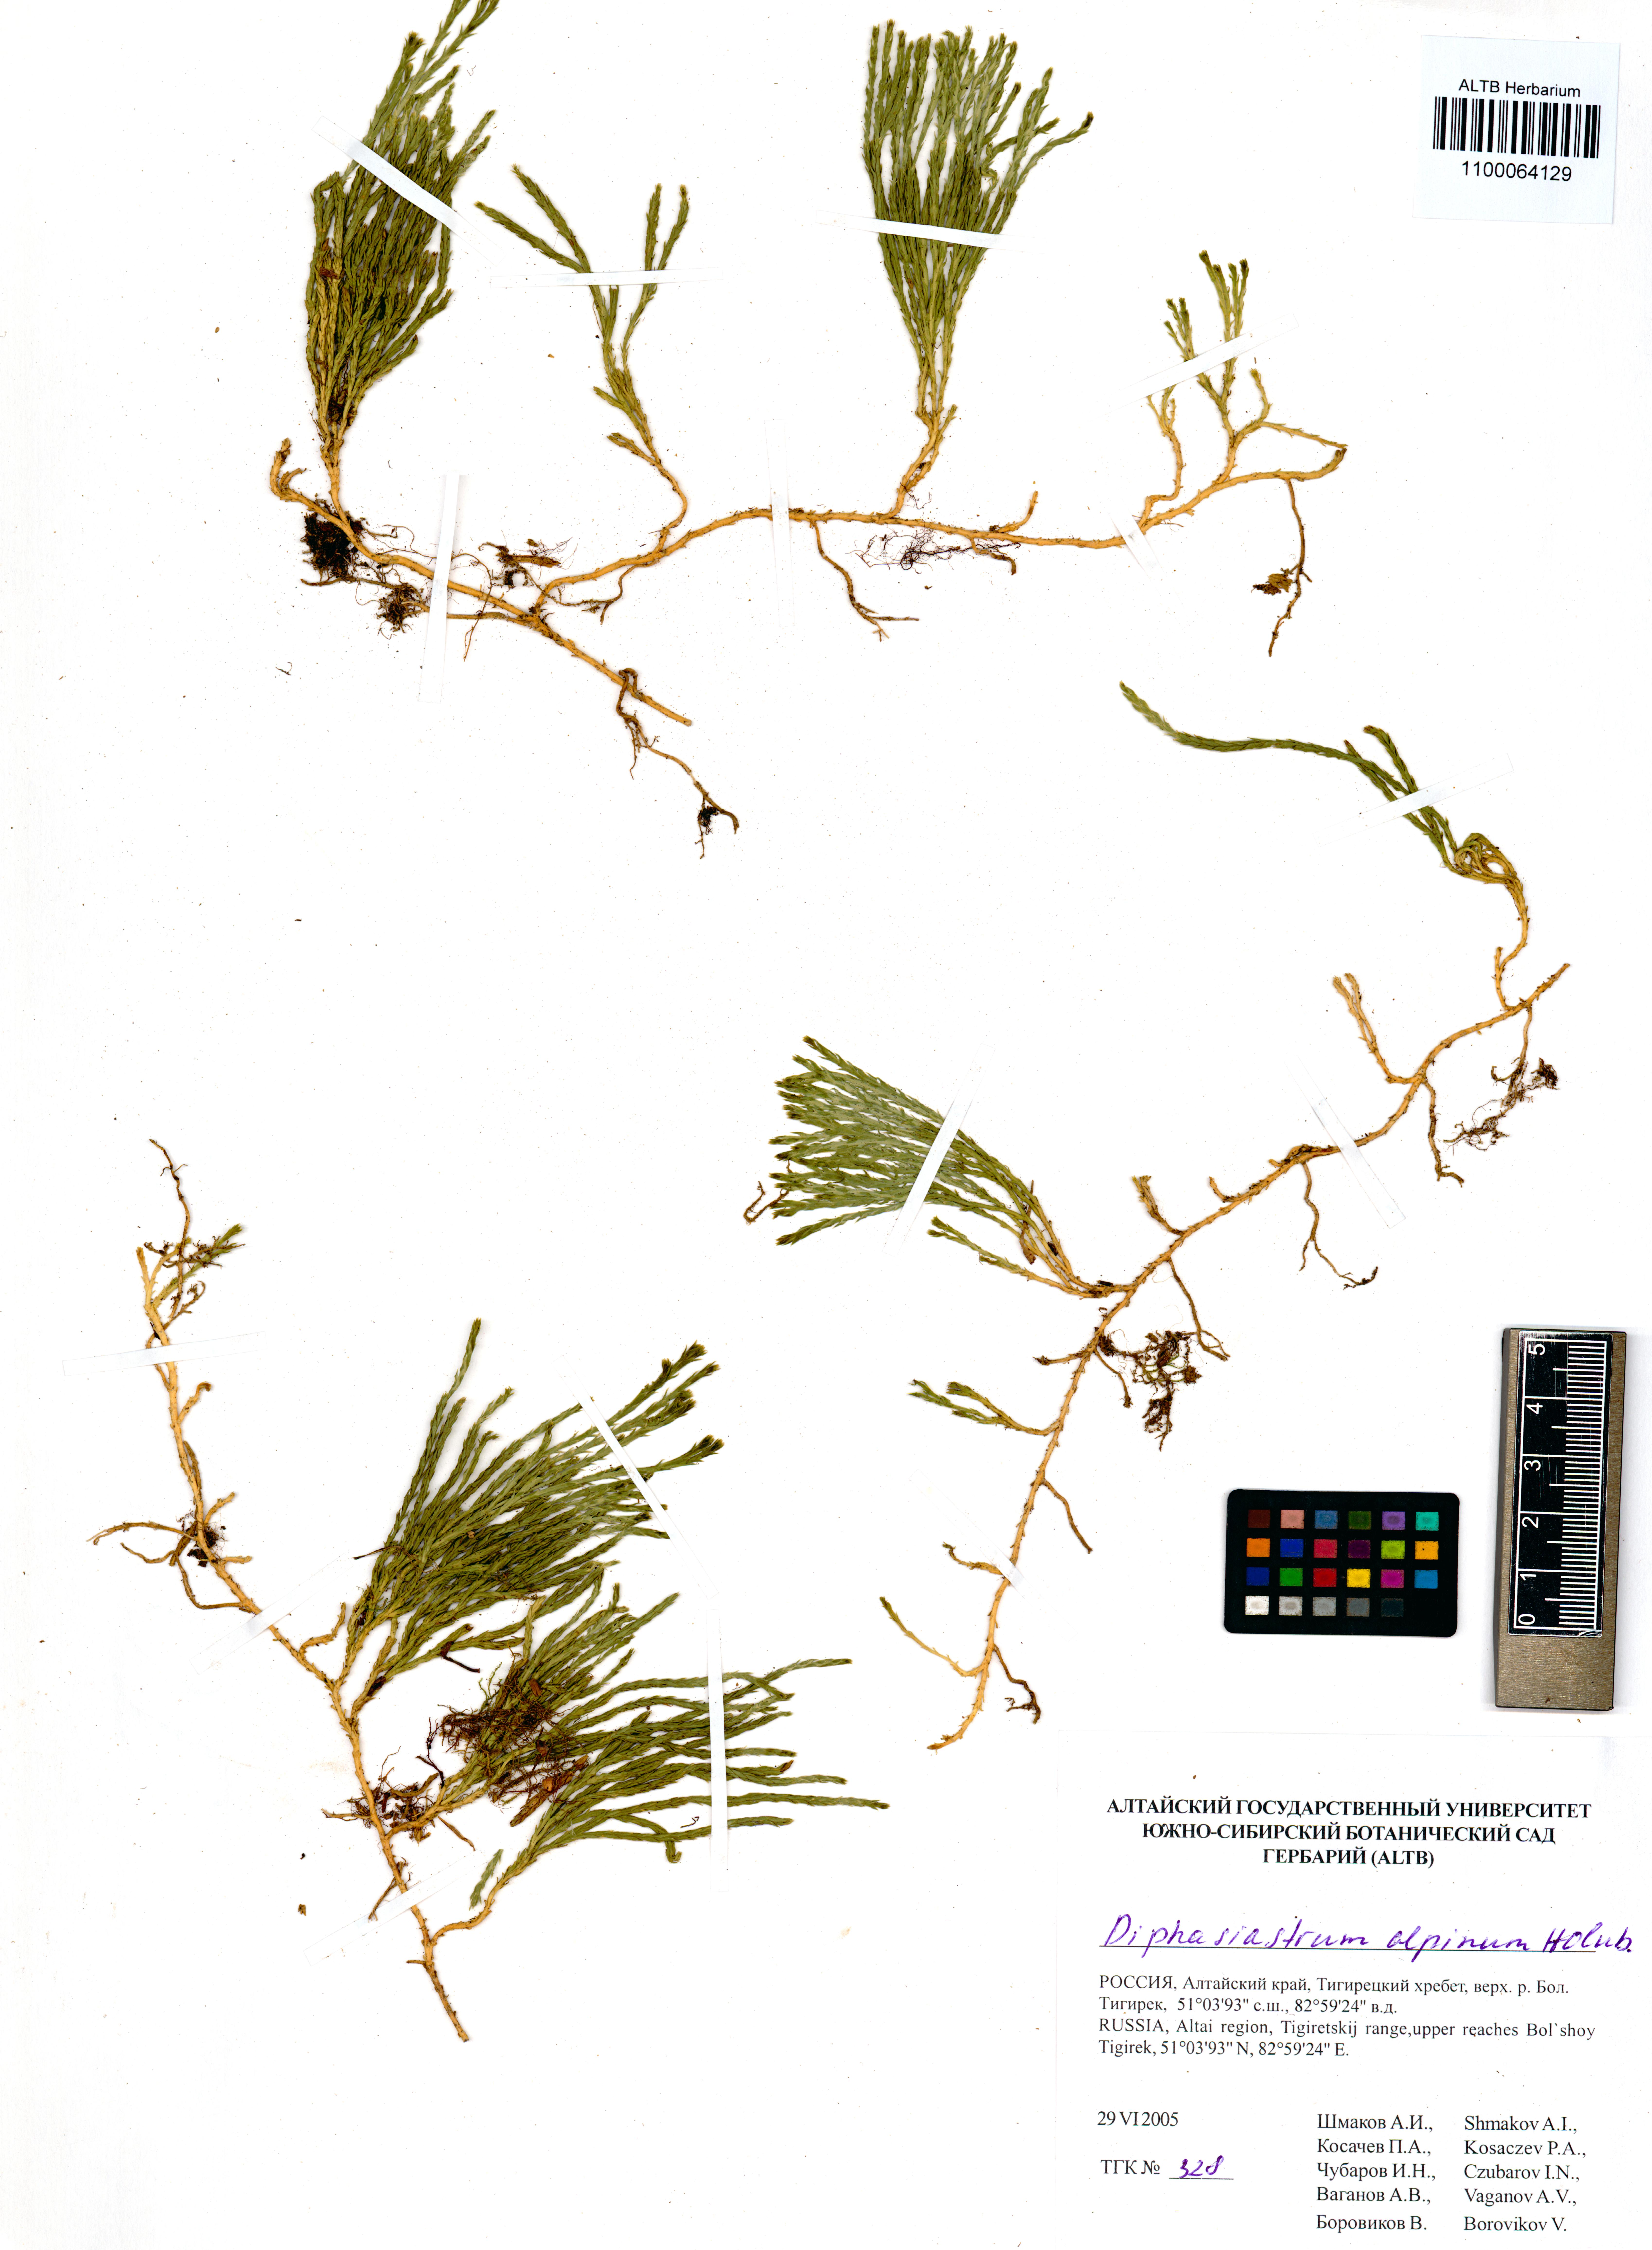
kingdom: Plantae
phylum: Tracheophyta
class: Lycopodiopsida
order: Lycopodiales
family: Lycopodiaceae
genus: Diphasiastrum
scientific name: Diphasiastrum alpinum
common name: Alpine clubmoss
